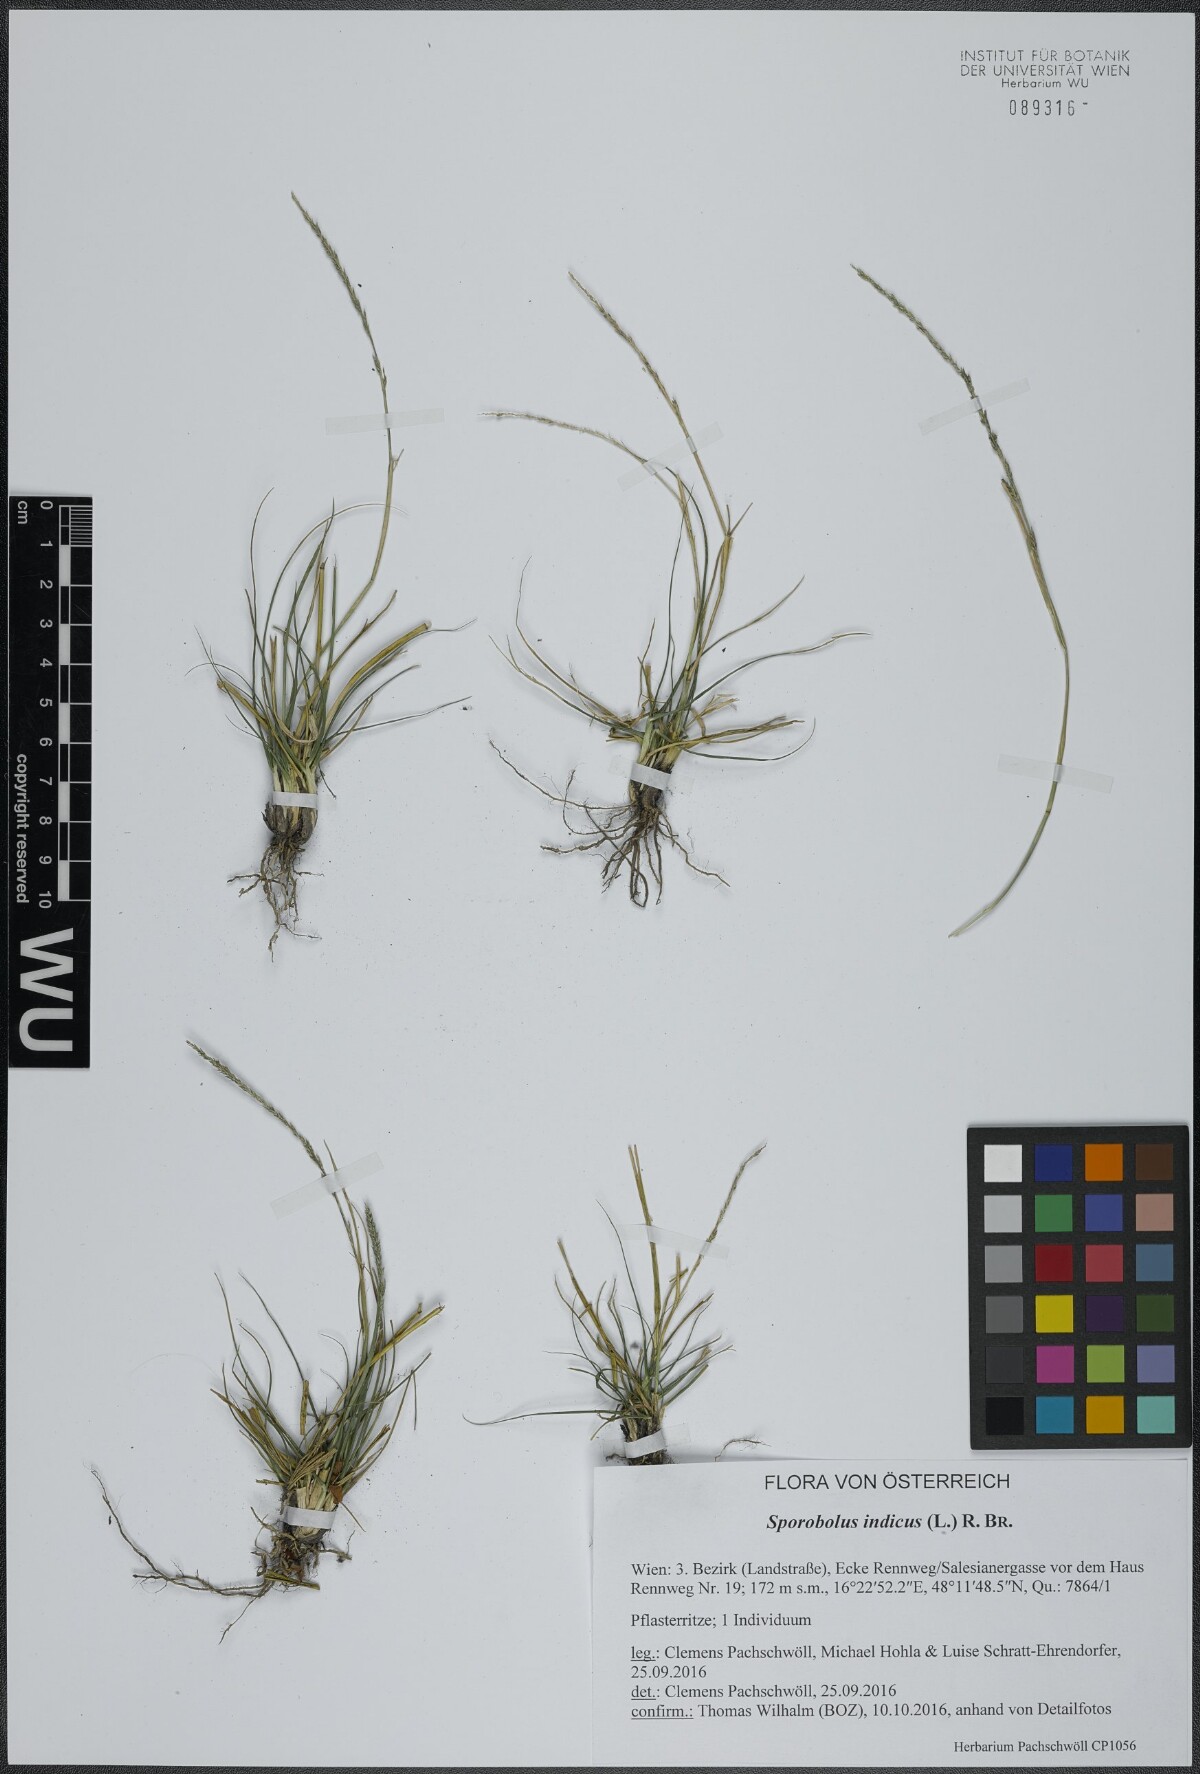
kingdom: Plantae
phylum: Tracheophyta
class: Liliopsida
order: Poales
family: Poaceae
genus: Sporobolus
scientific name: Sporobolus indicus
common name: Smut grass
